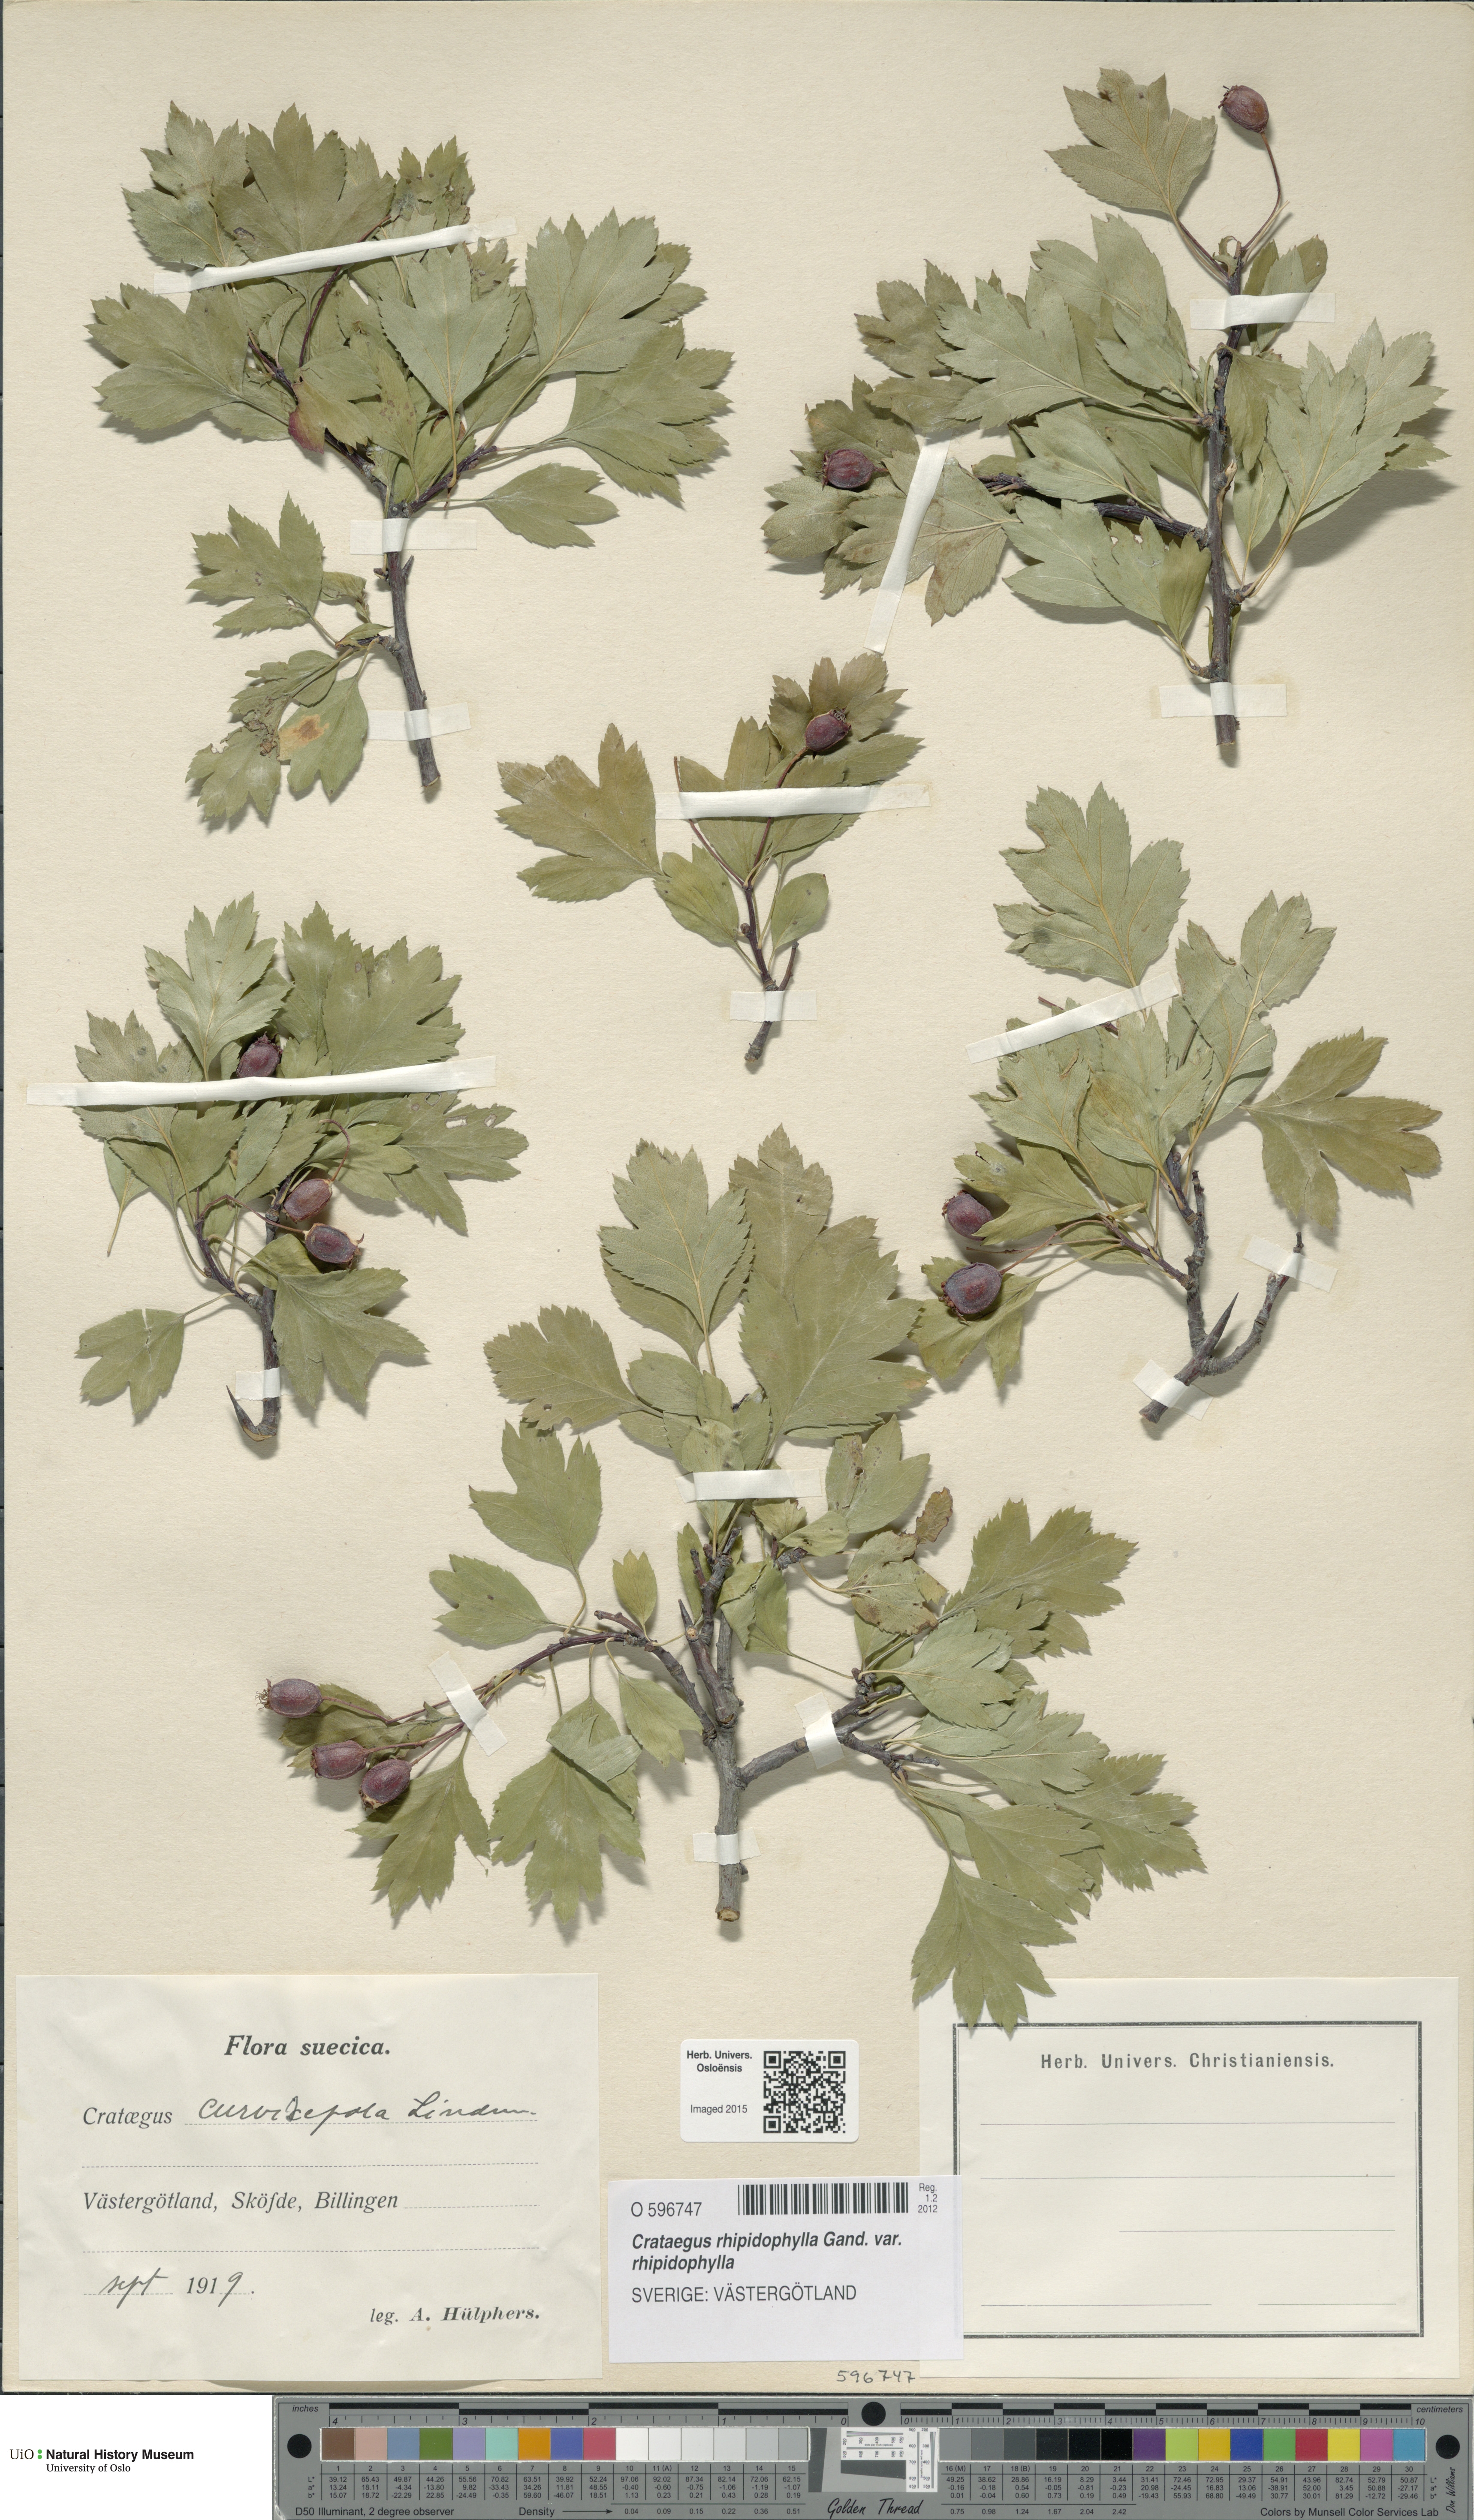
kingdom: Plantae
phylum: Tracheophyta
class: Magnoliopsida
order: Rosales
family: Rosaceae
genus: Crataegus
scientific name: Crataegus rhipidophylla
